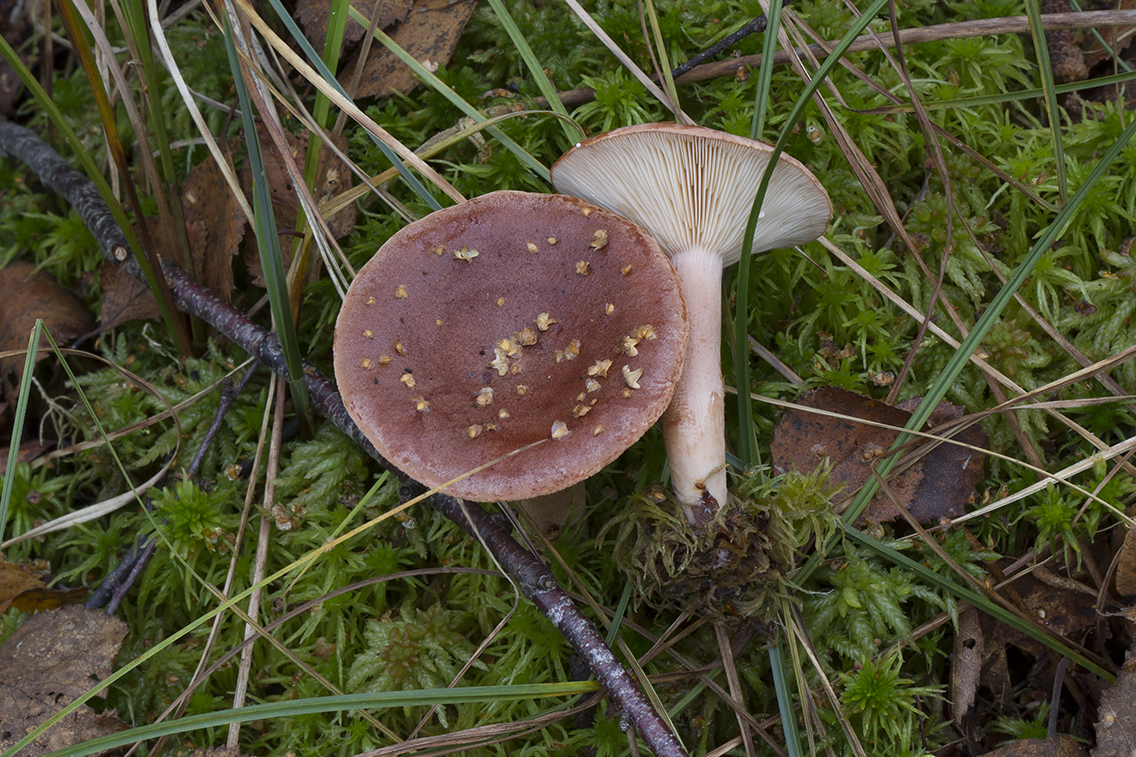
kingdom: Fungi
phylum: Basidiomycota
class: Agaricomycetes
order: Russulales
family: Russulaceae
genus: Lactarius
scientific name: Lactarius rufus
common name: rødbrun mælkehat
